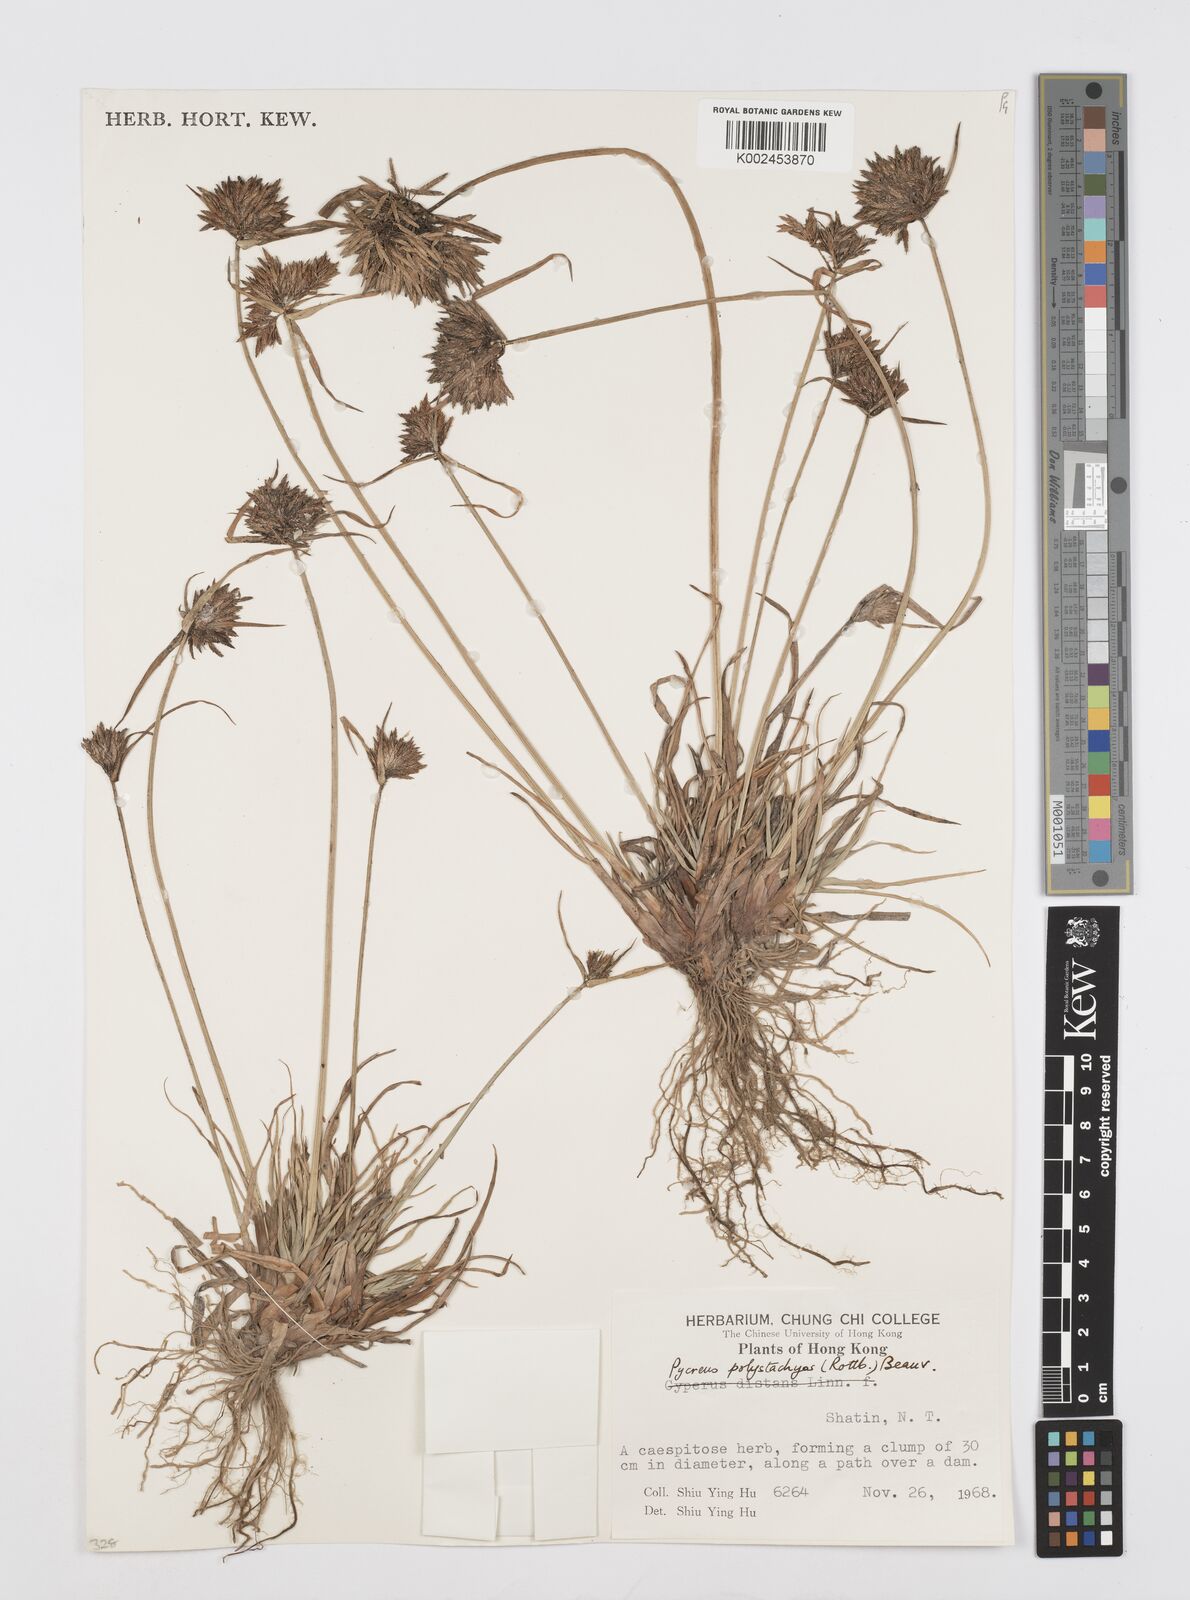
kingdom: Plantae
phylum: Tracheophyta
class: Liliopsida
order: Poales
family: Cyperaceae
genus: Cyperus
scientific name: Cyperus polystachyos
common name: Bunchy flat sedge
